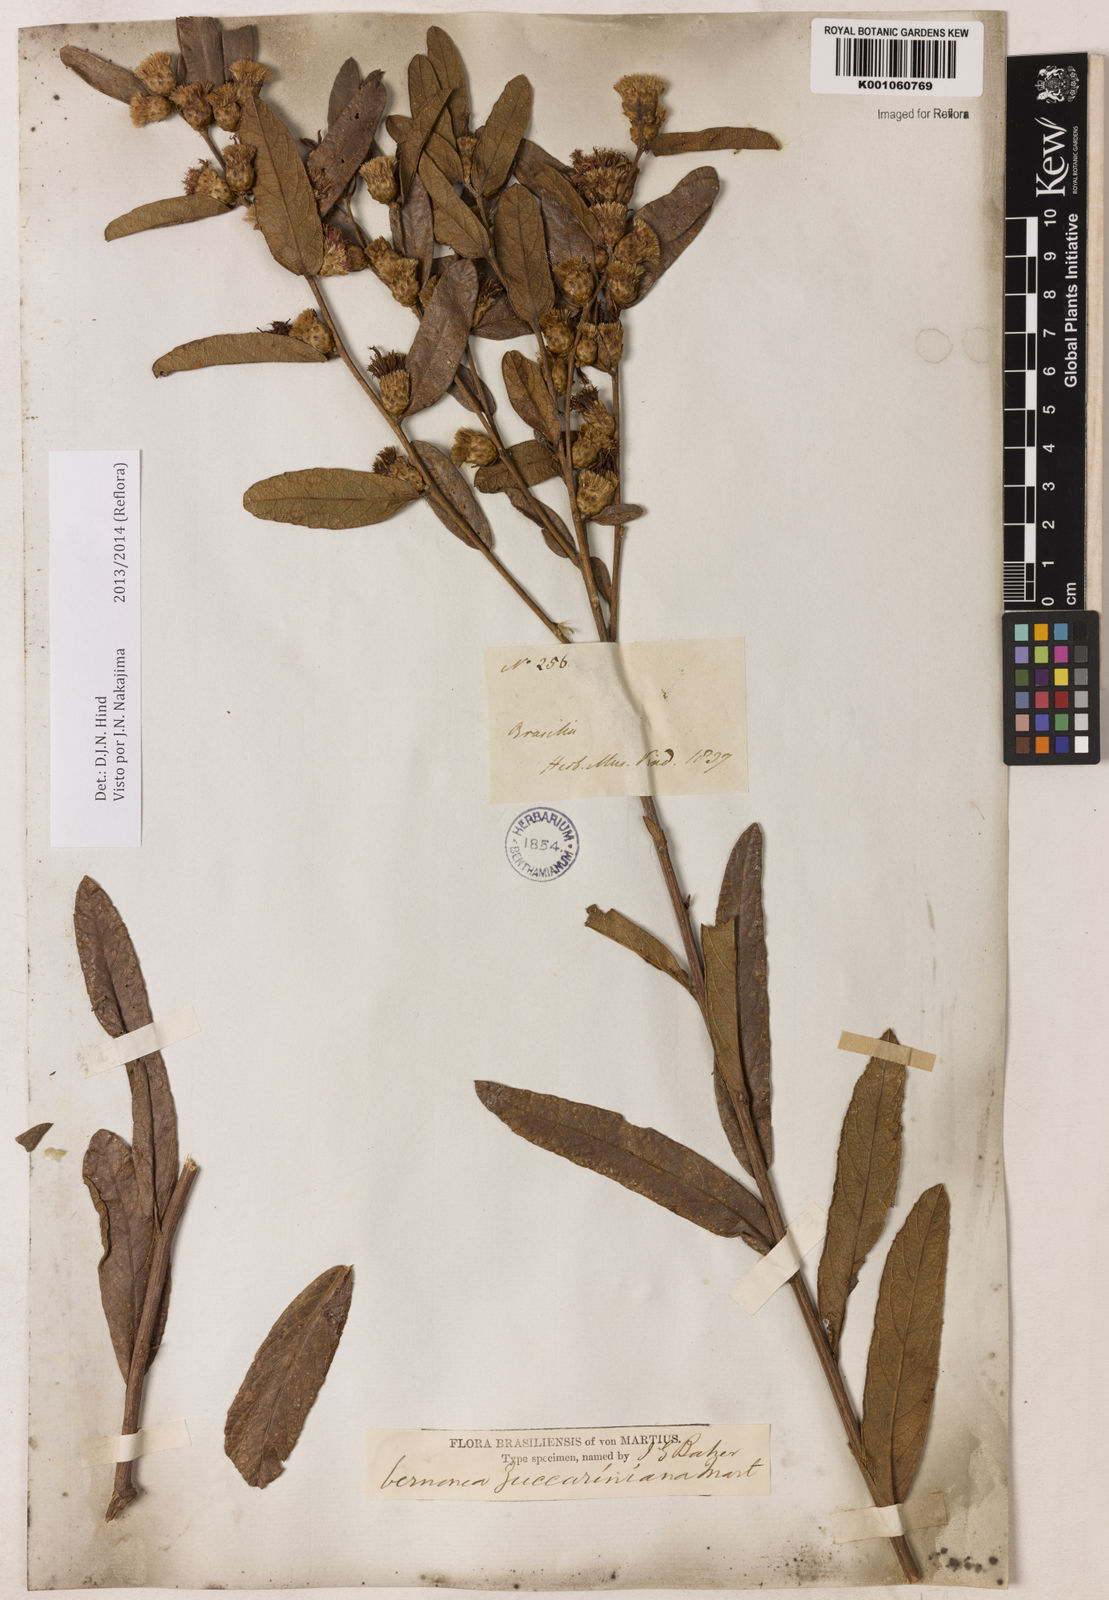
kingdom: Plantae
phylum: Tracheophyta
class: Magnoliopsida
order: Asterales
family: Asteraceae
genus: Lessingianthus
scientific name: Lessingianthus zuccarinianus
